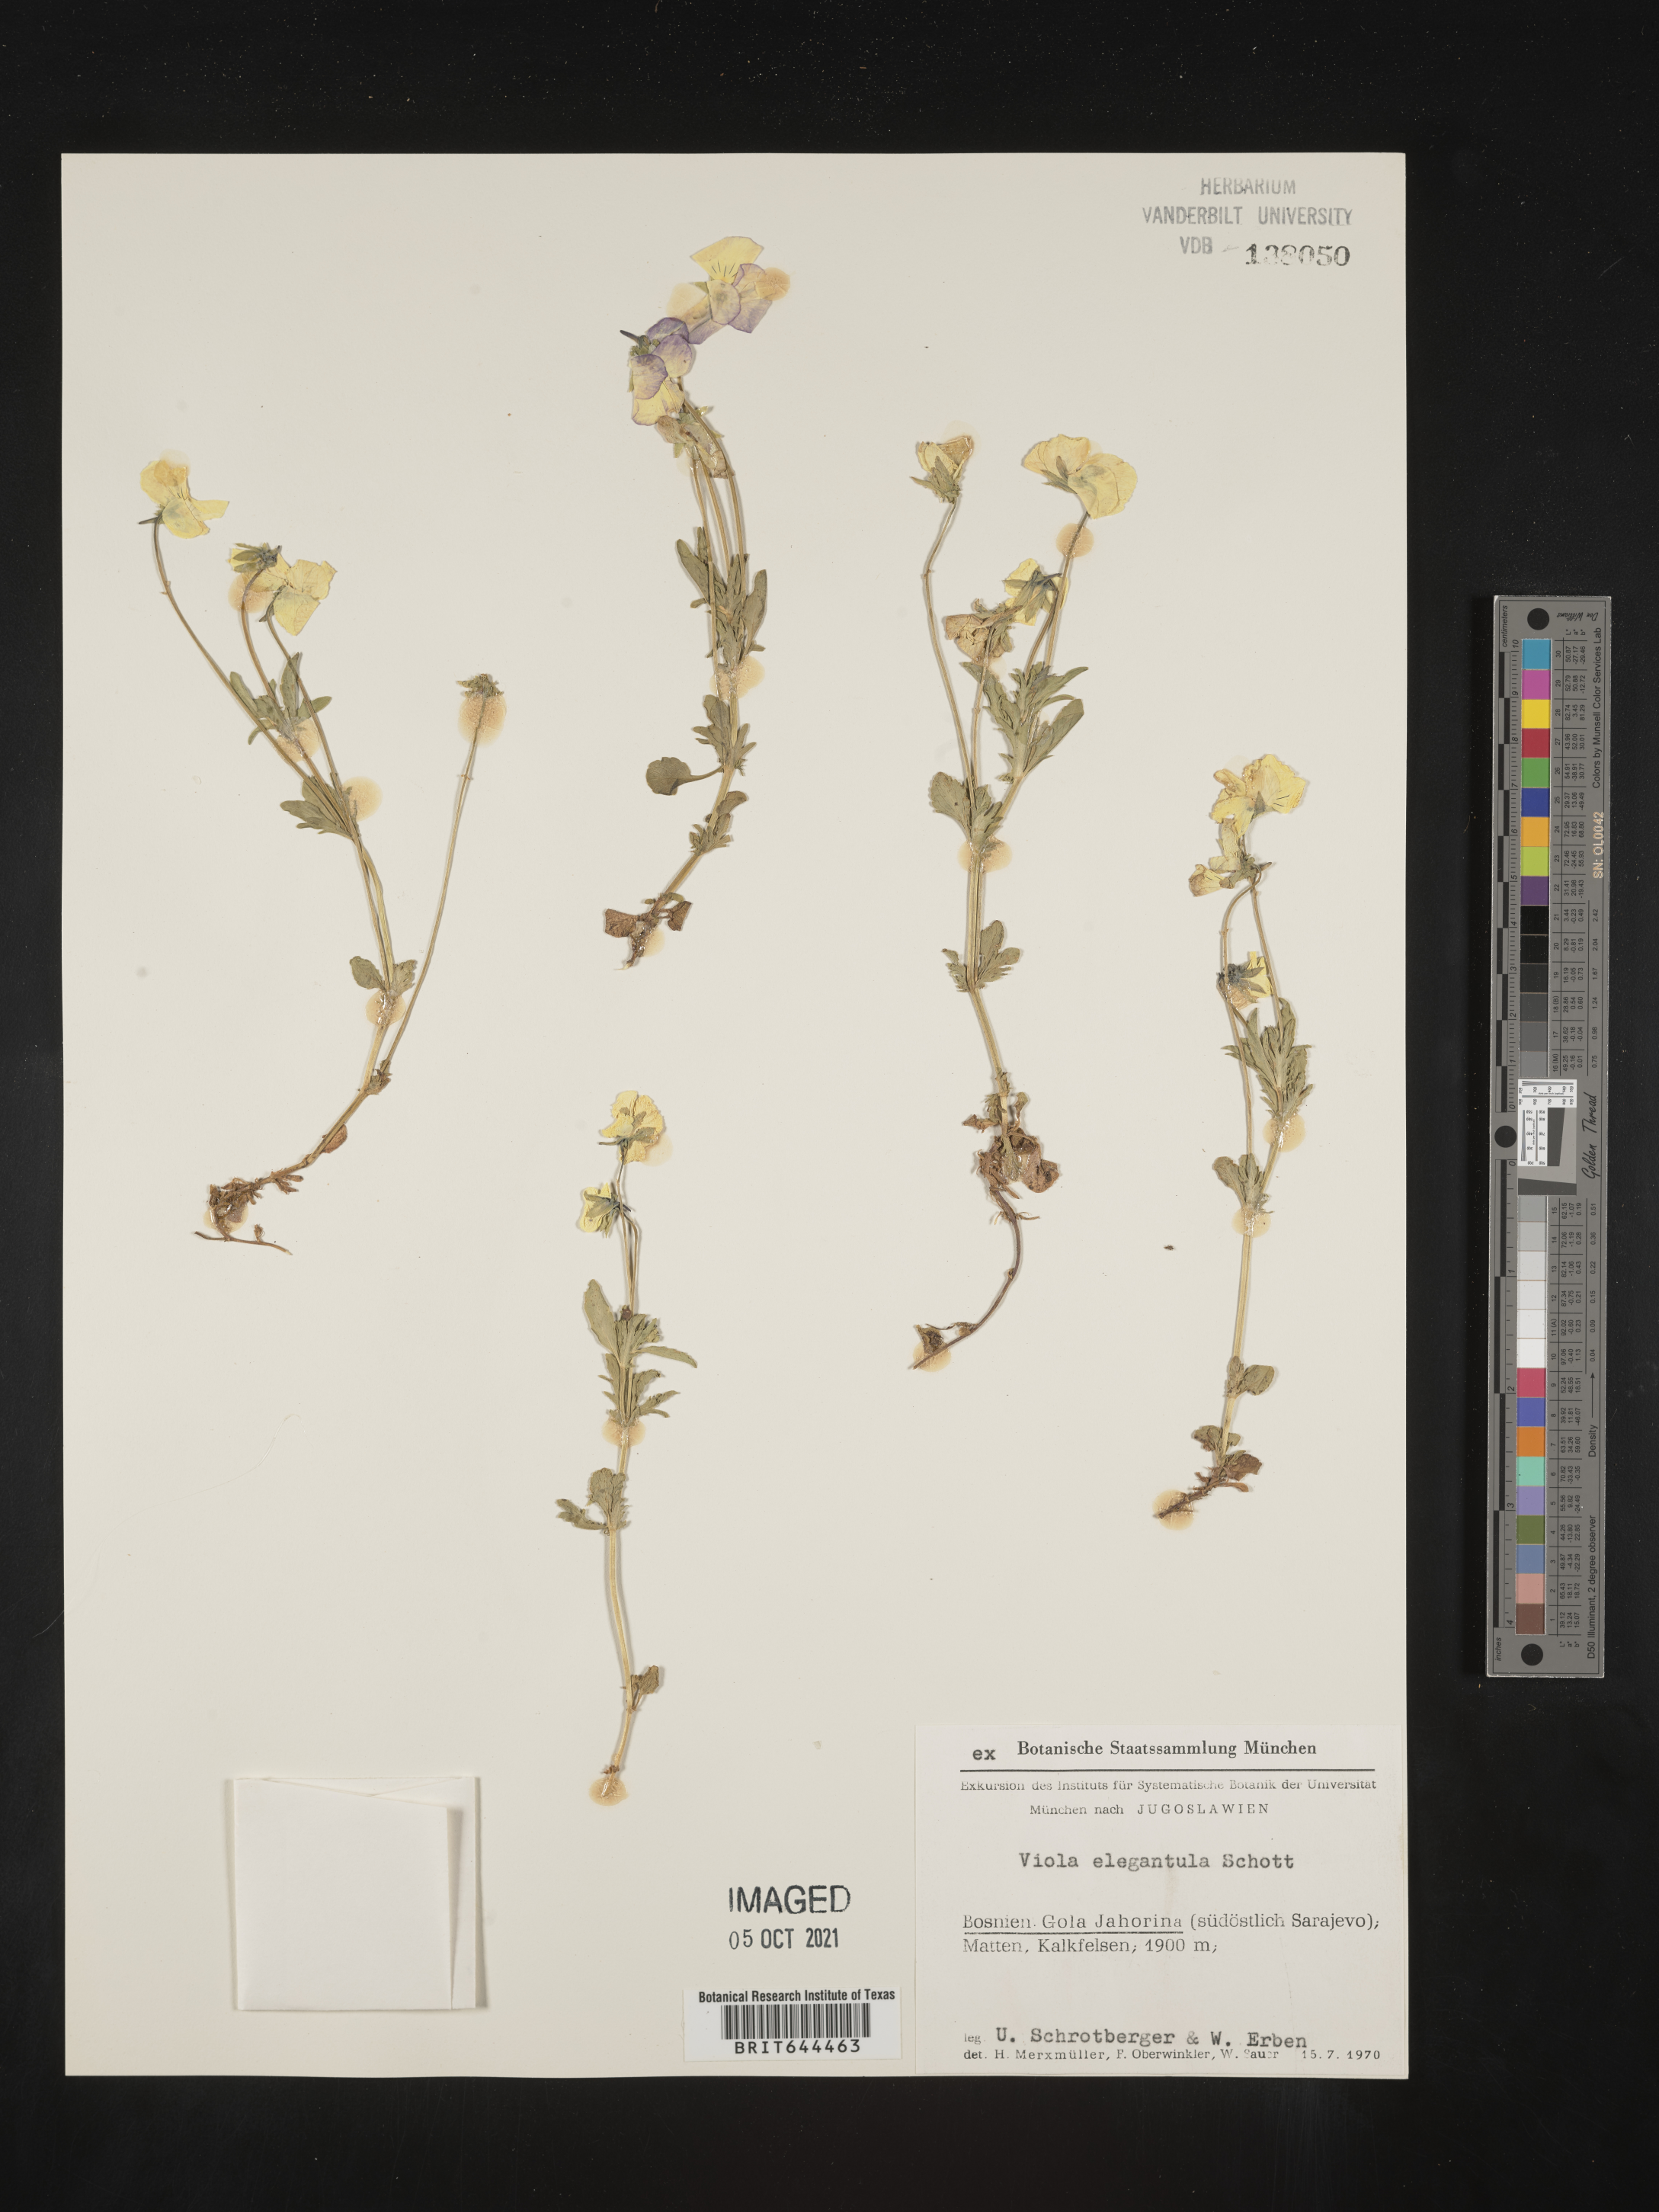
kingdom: Plantae
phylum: Tracheophyta
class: Magnoliopsida
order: Malpighiales
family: Violaceae
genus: Viola
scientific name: Viola
